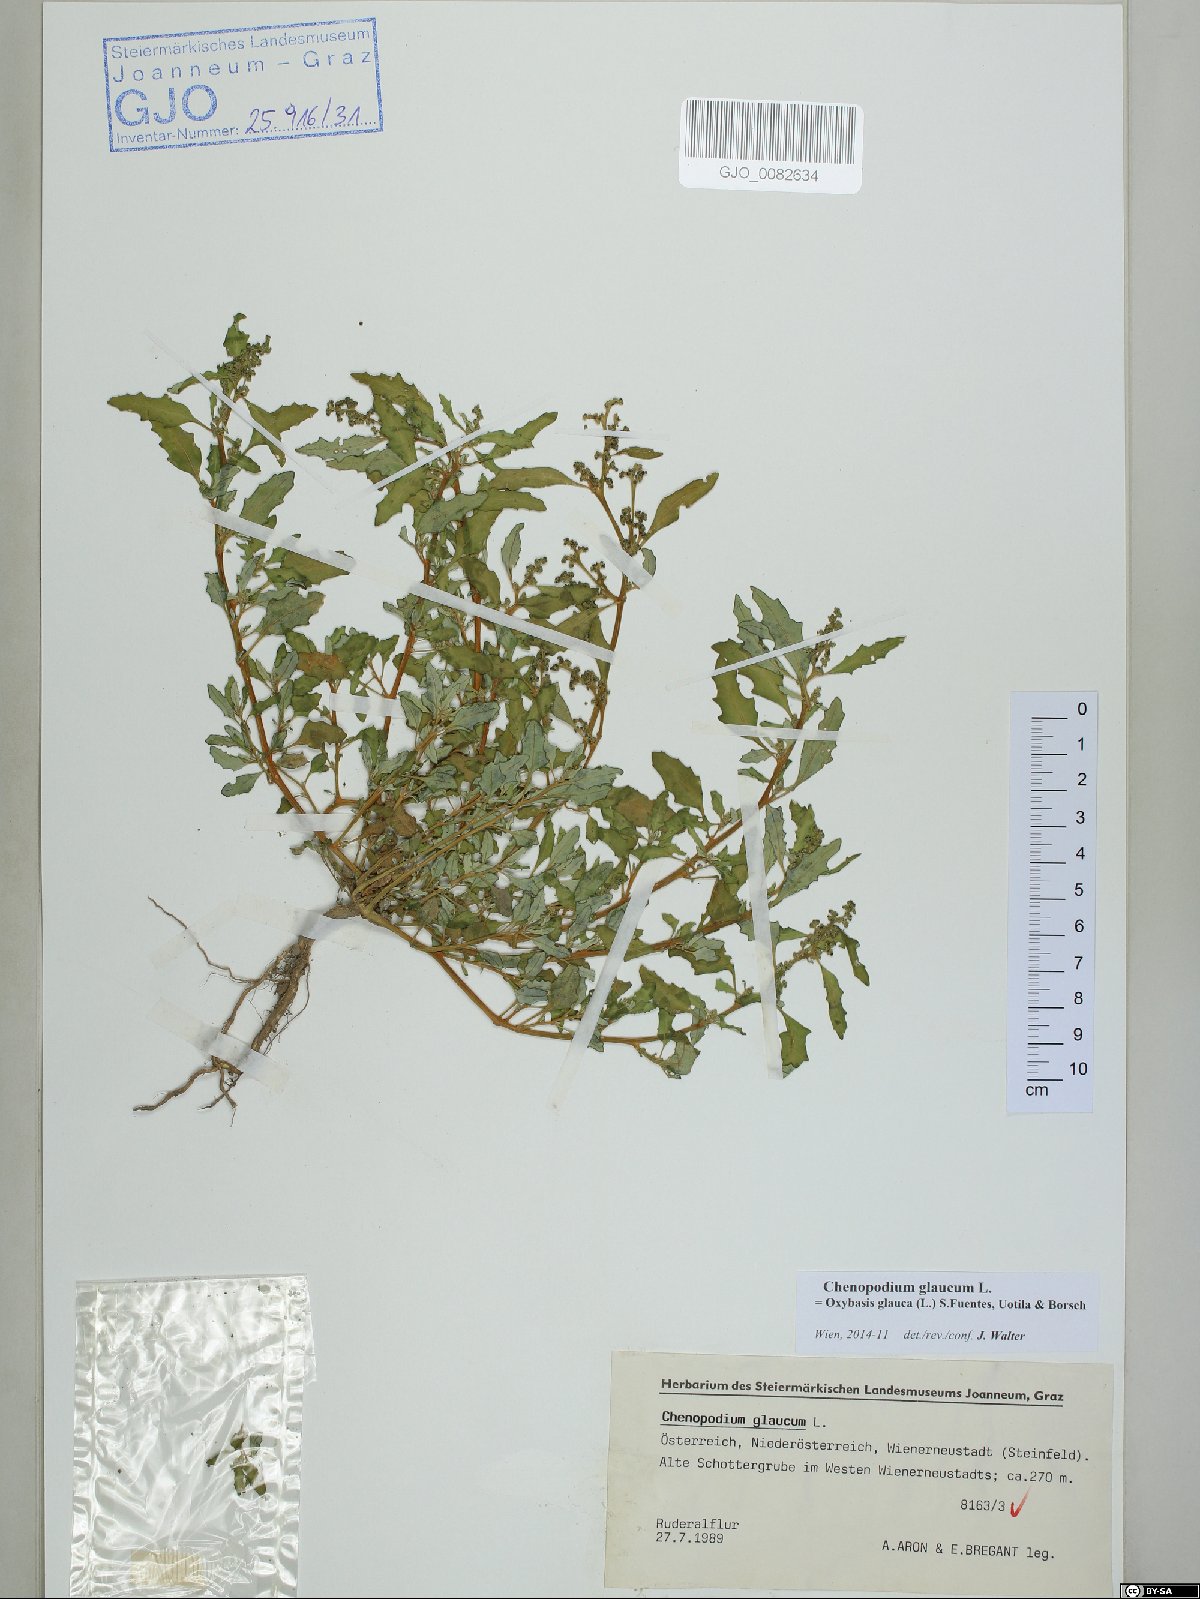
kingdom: Plantae
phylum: Tracheophyta
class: Magnoliopsida
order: Caryophyllales
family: Amaranthaceae
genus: Oxybasis
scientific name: Oxybasis glauca
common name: Glaucous goosefoot
